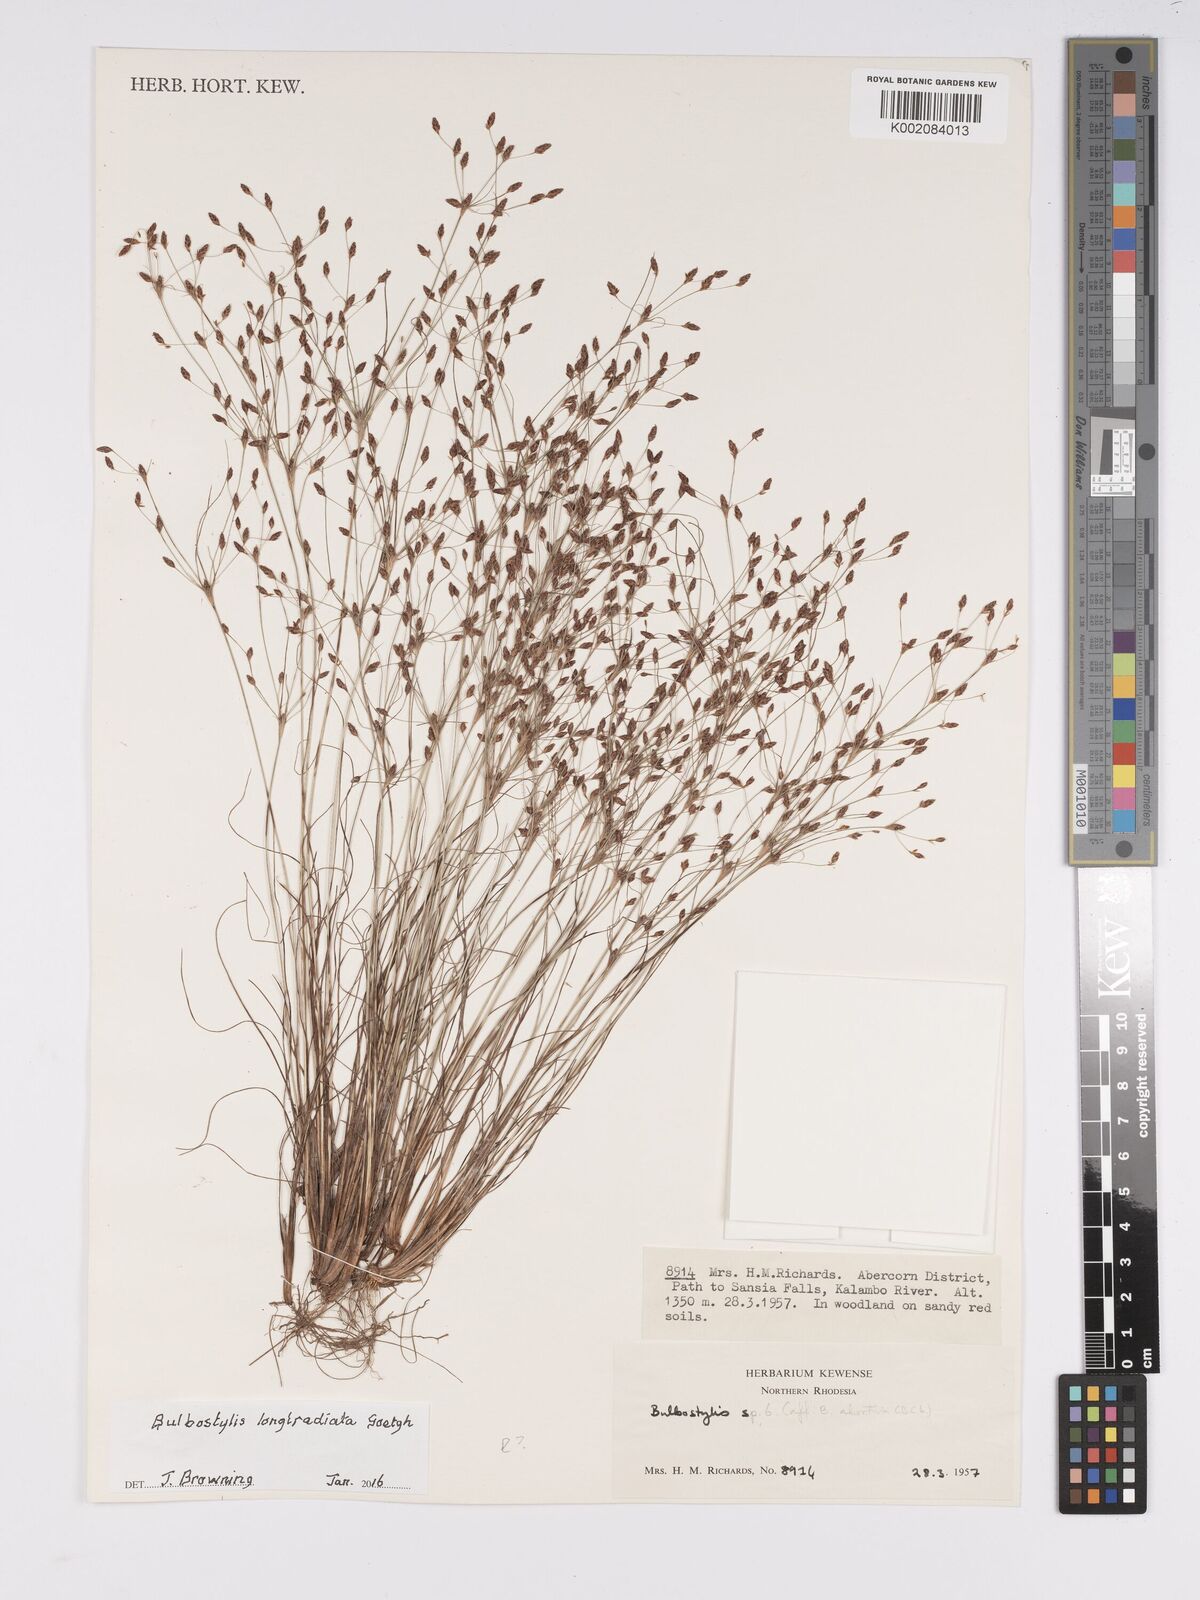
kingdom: Plantae
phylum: Tracheophyta
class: Liliopsida
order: Poales
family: Cyperaceae
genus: Bulbostylis
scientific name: Bulbostylis longiradiata
